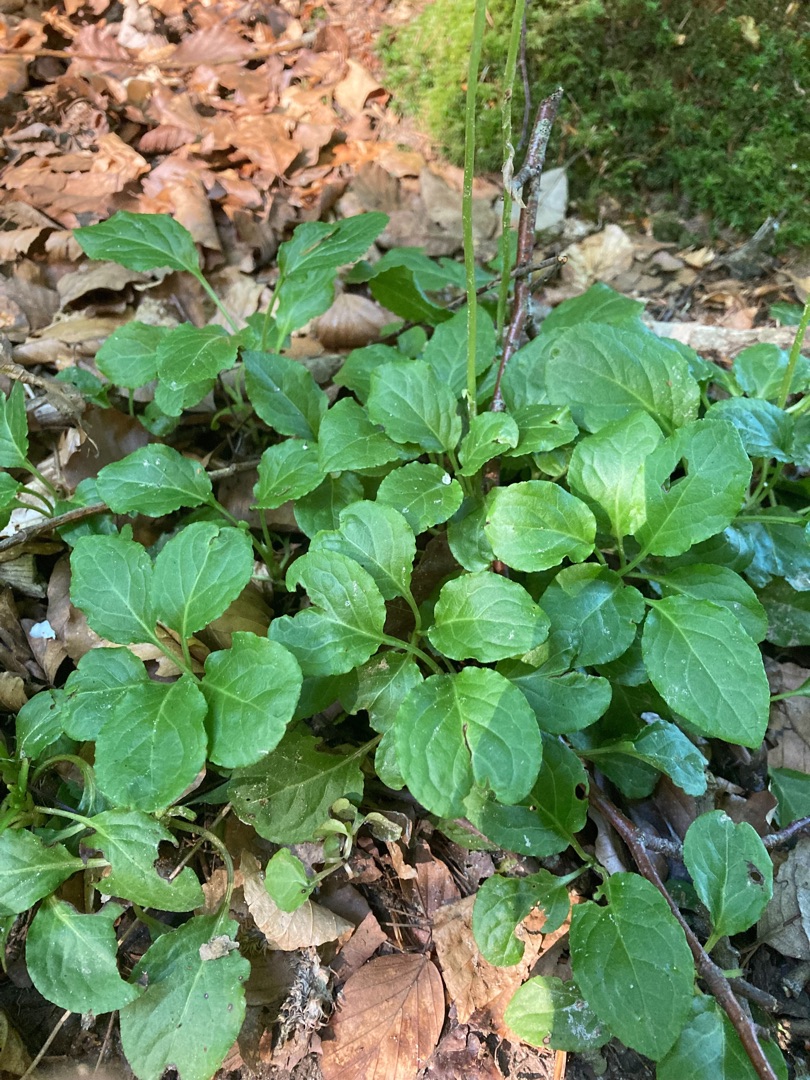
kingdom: Plantae
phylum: Tracheophyta
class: Magnoliopsida
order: Ericales
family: Ericaceae
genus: Pyrola
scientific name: Pyrola minor
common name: Liden vintergrøn
